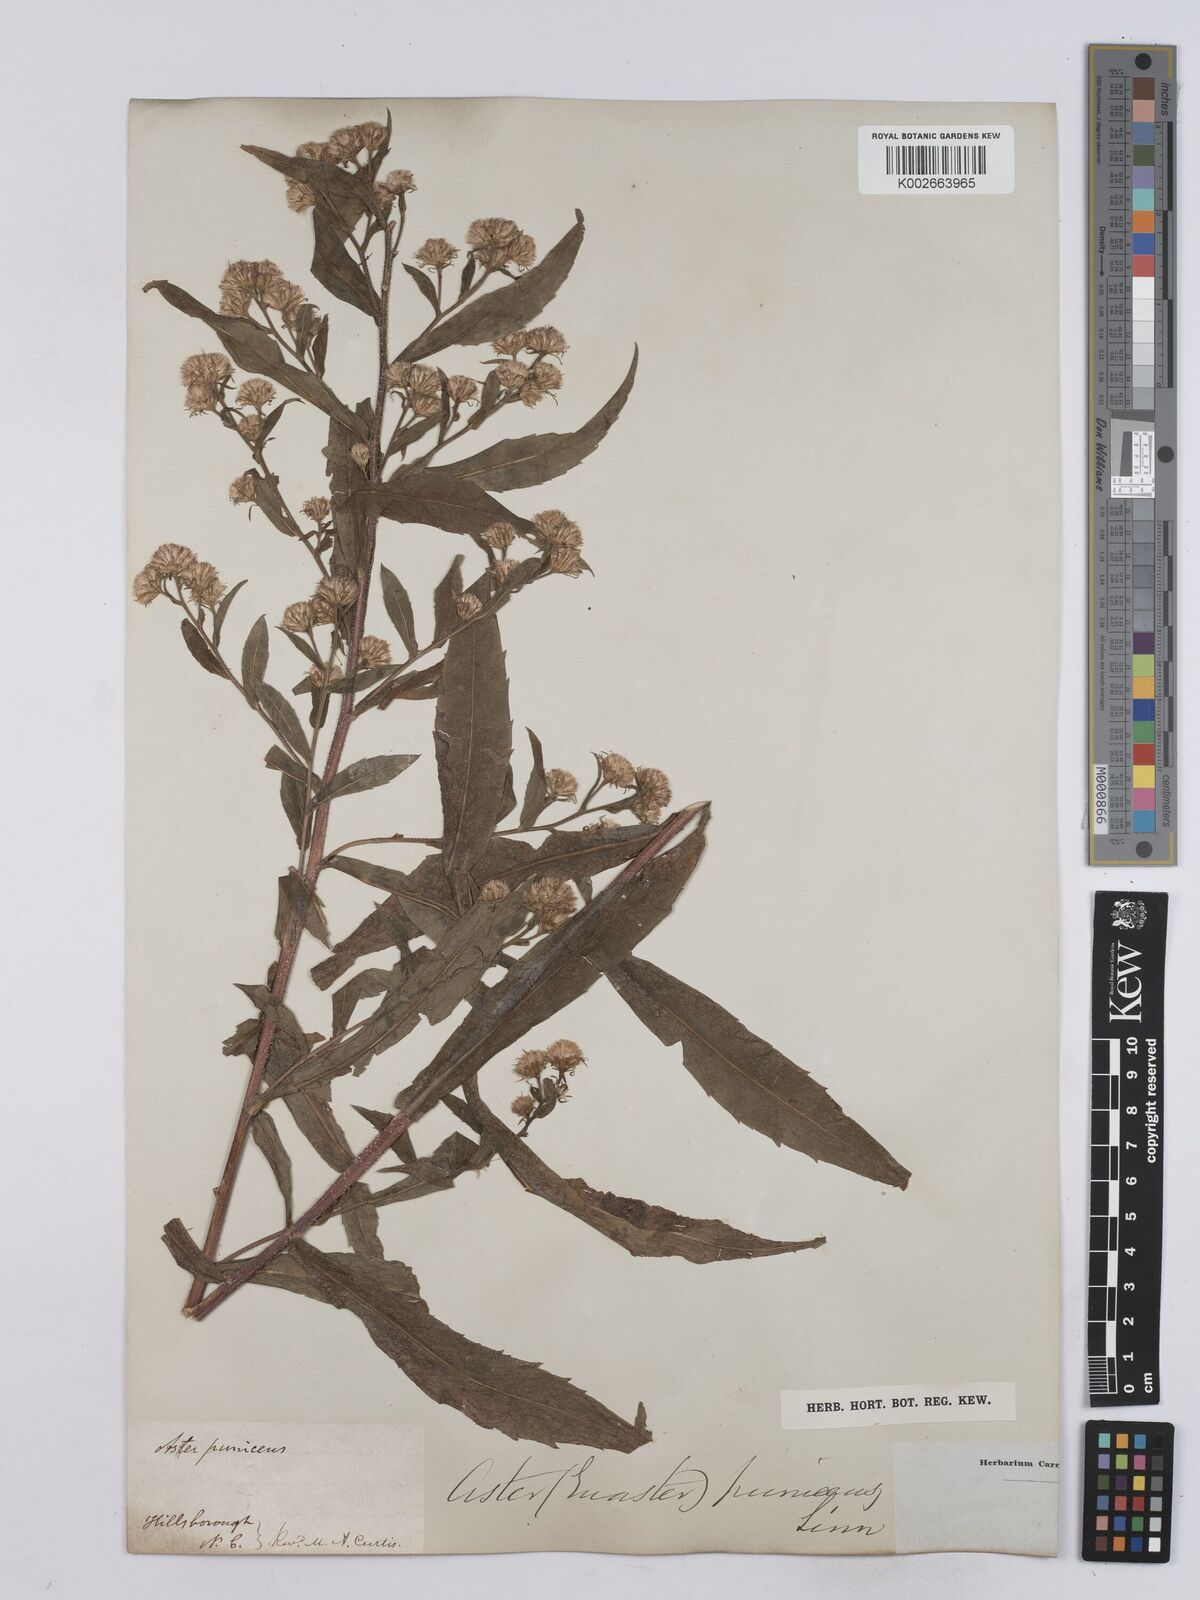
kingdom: Plantae
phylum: Tracheophyta
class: Magnoliopsida
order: Asterales
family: Asteraceae
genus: Symphyotrichum
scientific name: Symphyotrichum puniceum
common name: Bog aster
